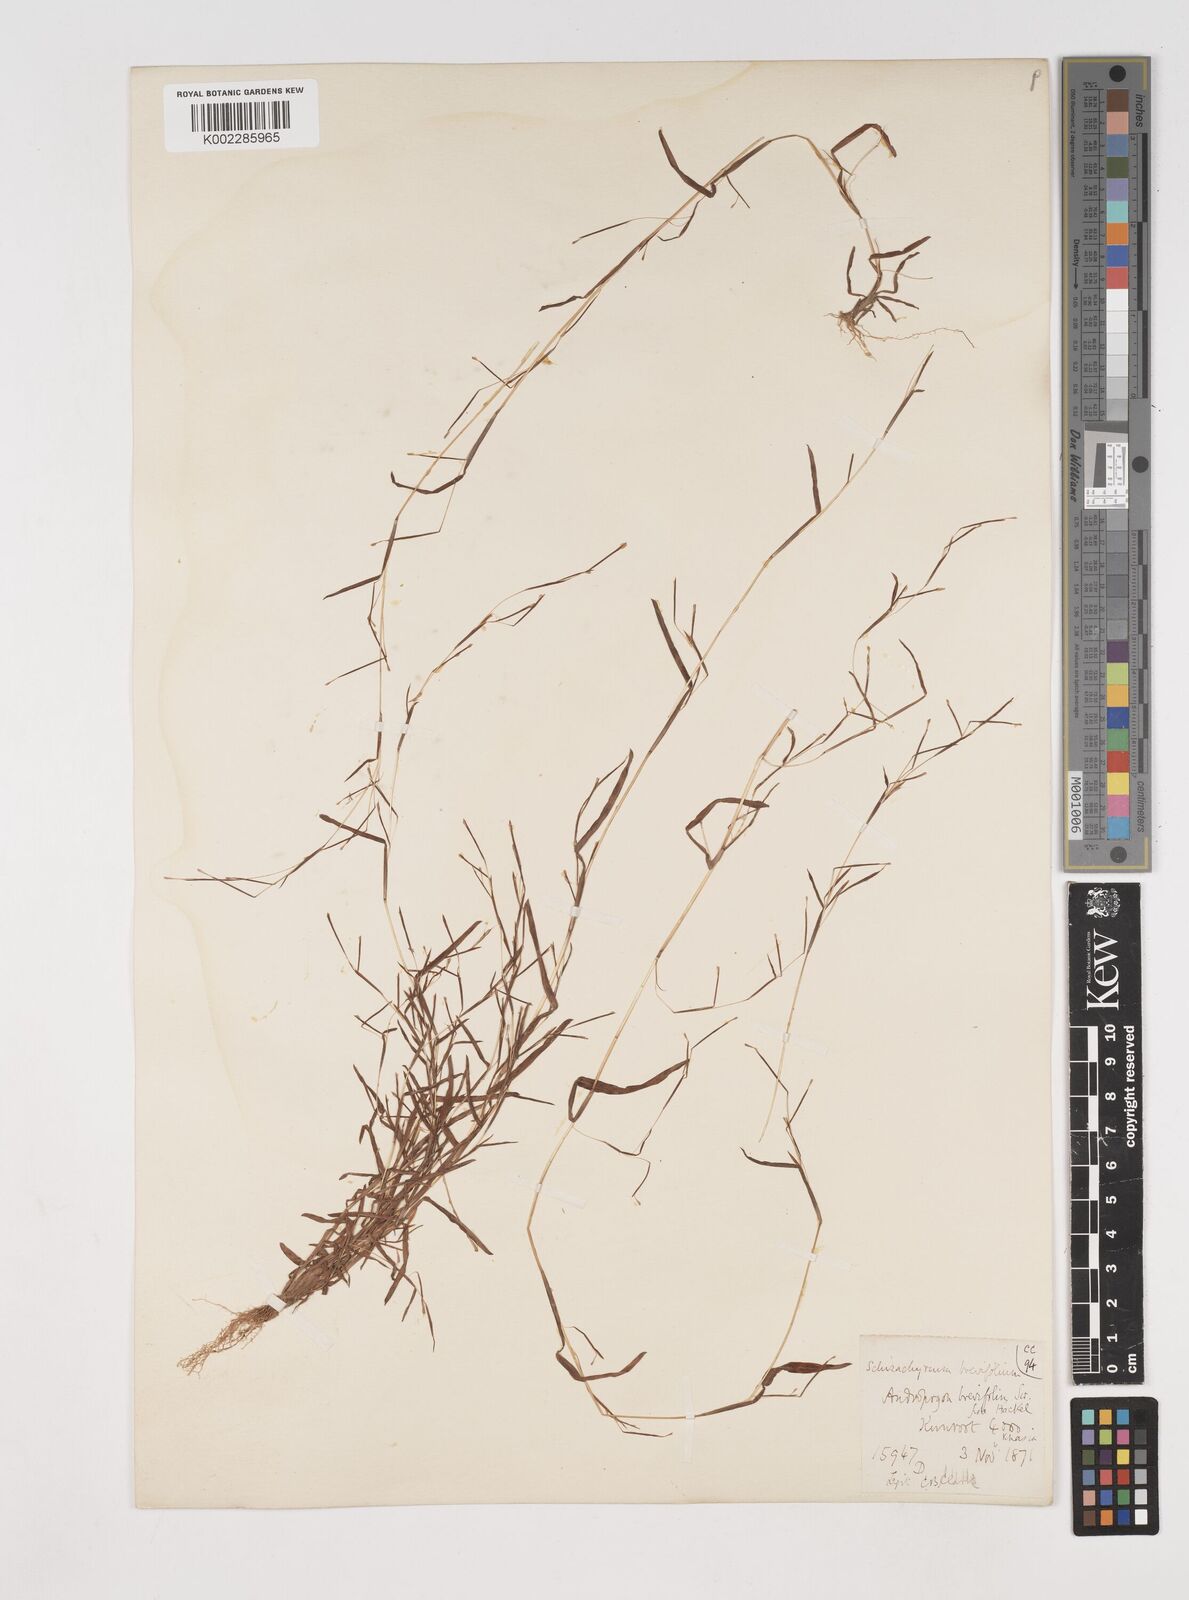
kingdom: Plantae
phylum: Tracheophyta
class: Liliopsida
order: Poales
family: Poaceae
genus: Schizachyrium
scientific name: Schizachyrium brevifolium
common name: Serillo dulce
